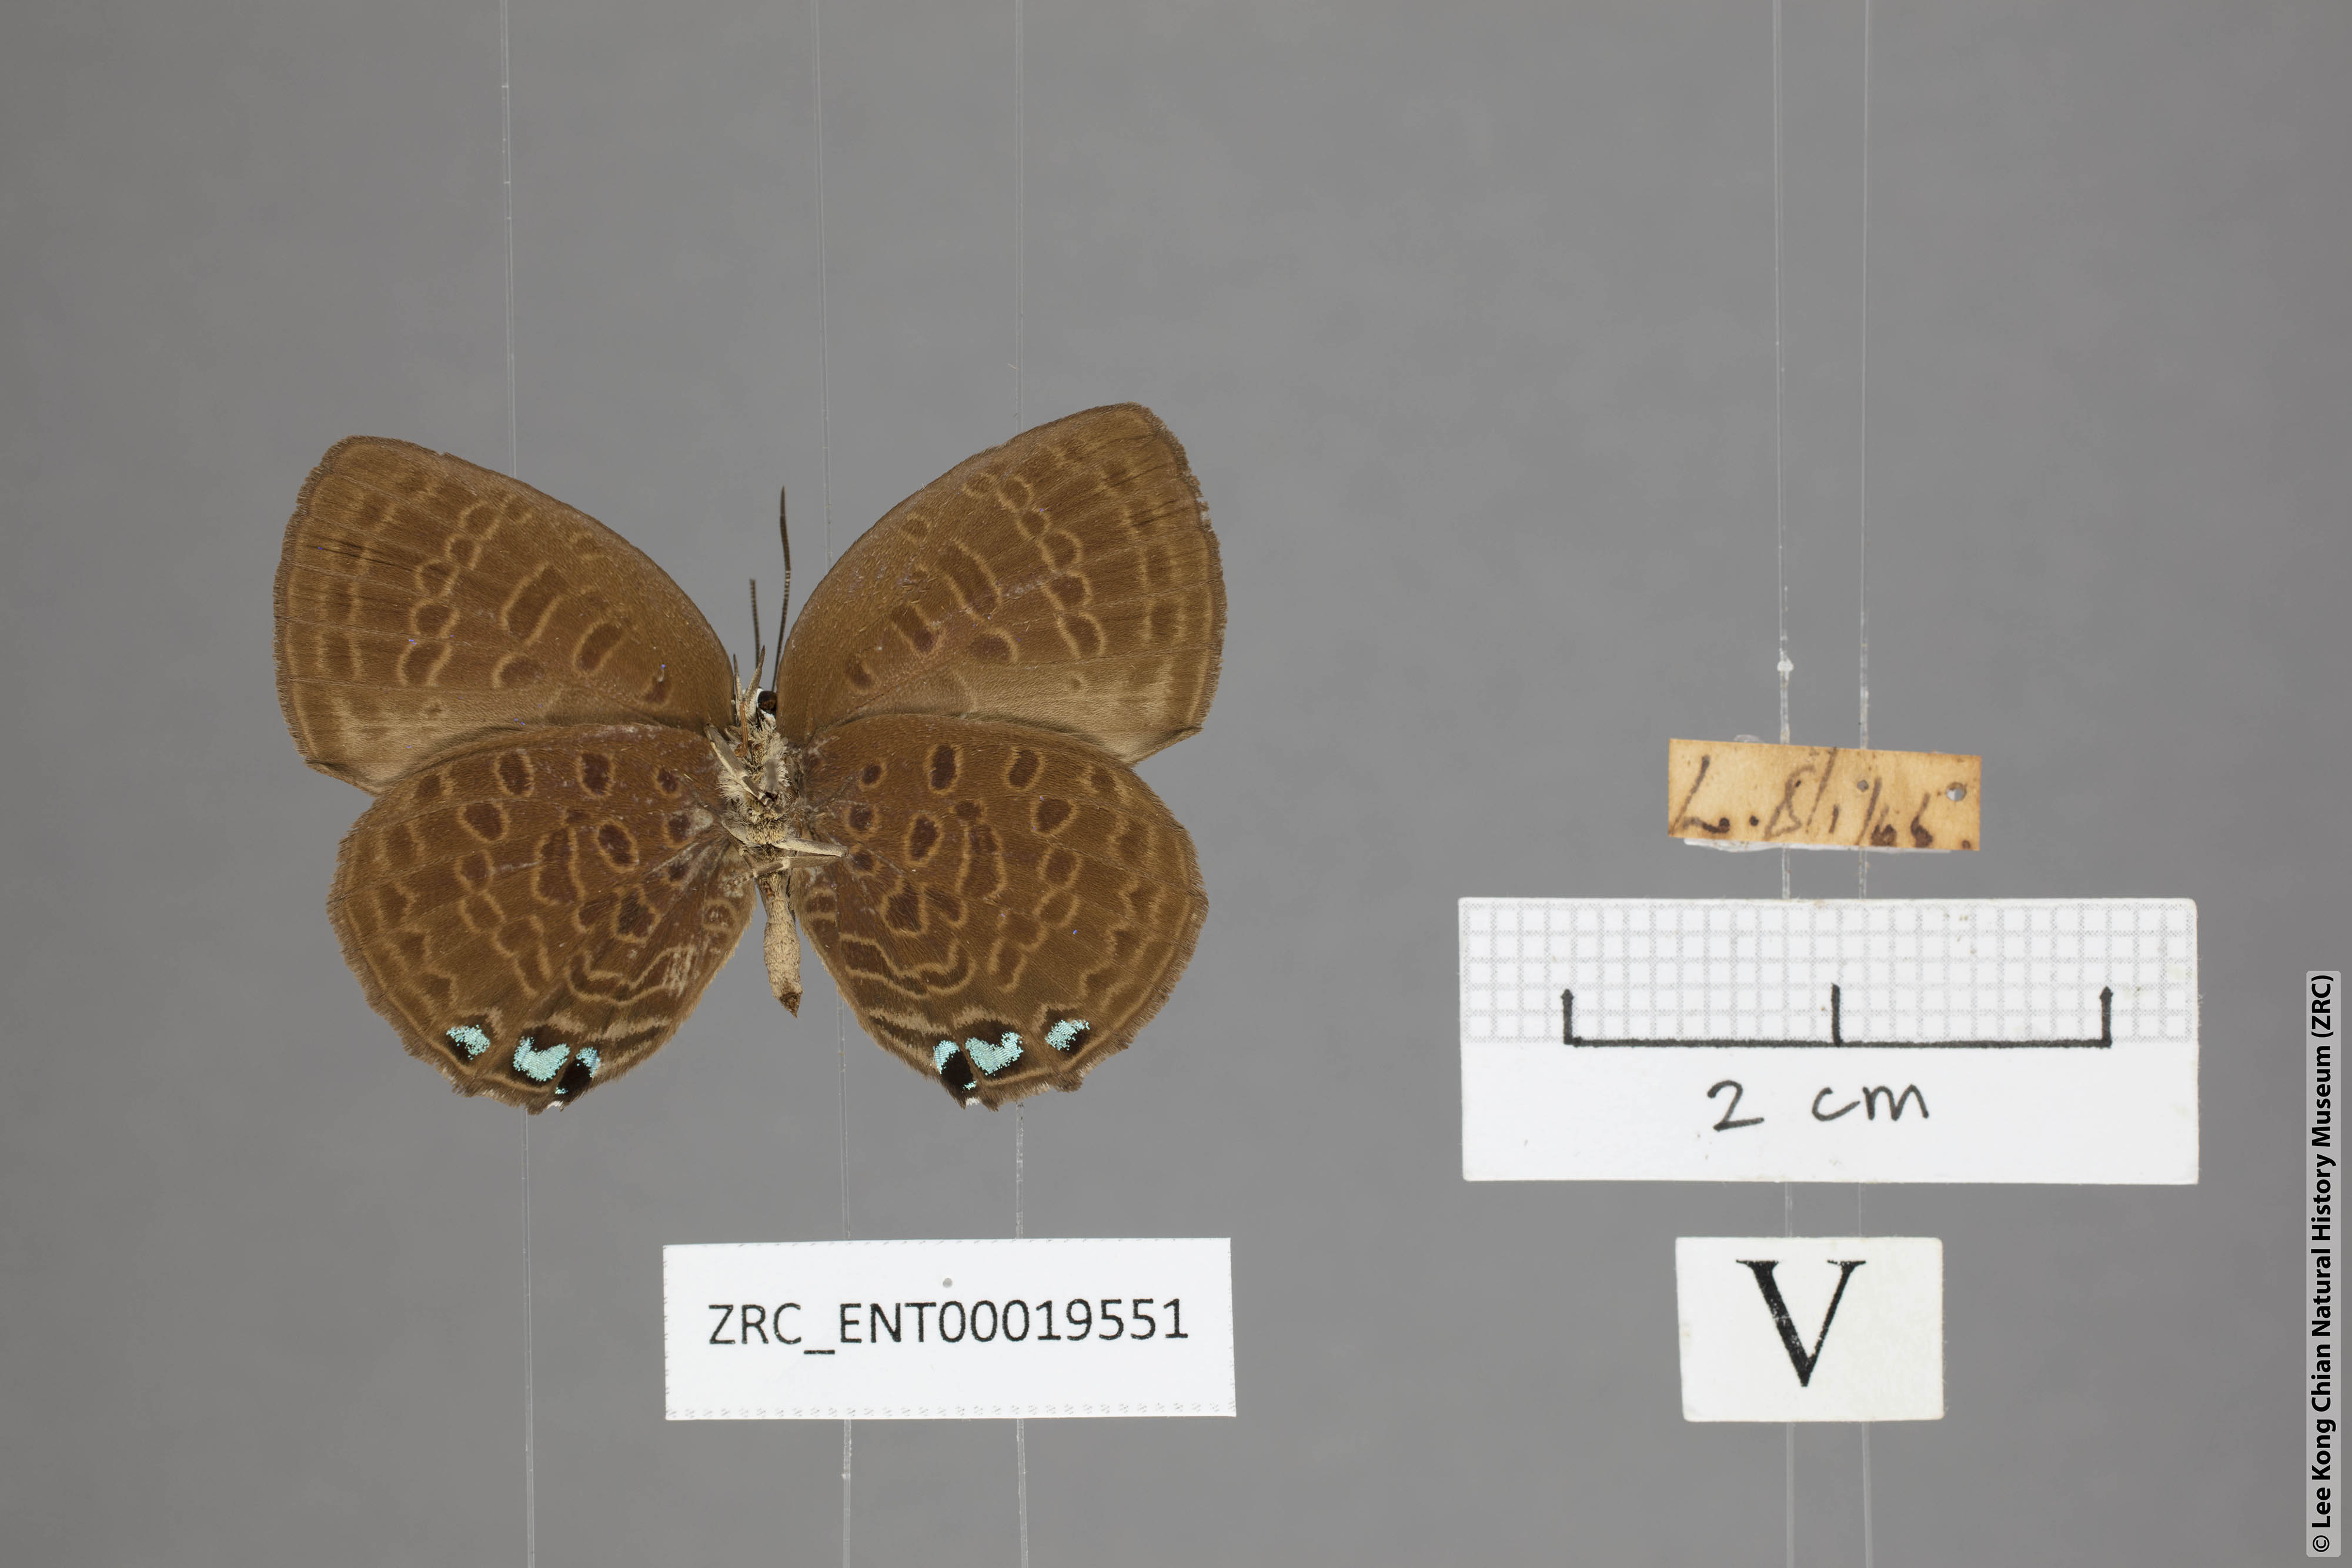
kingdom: Animalia
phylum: Arthropoda
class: Insecta
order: Lepidoptera
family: Lycaenidae
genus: Arhopala
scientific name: Arhopala hypomuta
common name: Violet oakblue
